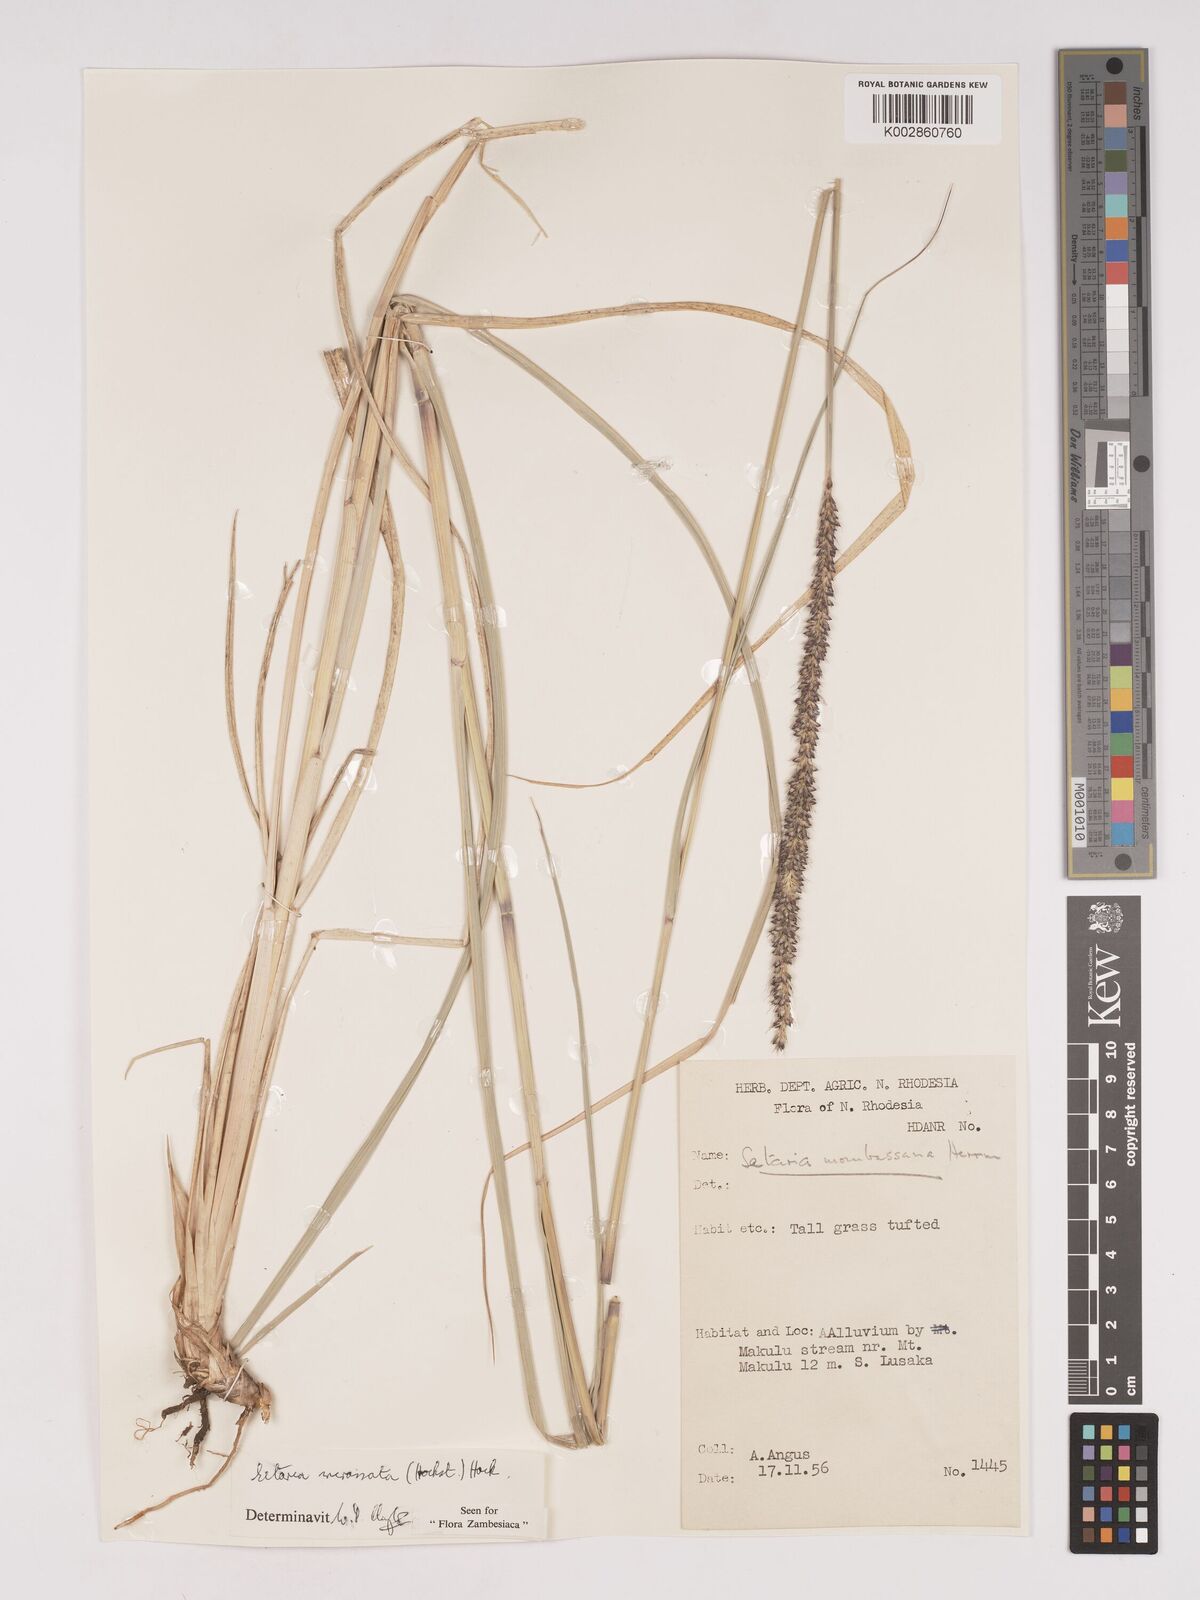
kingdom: Plantae
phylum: Tracheophyta
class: Liliopsida
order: Poales
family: Poaceae
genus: Setaria
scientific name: Setaria incrassata
